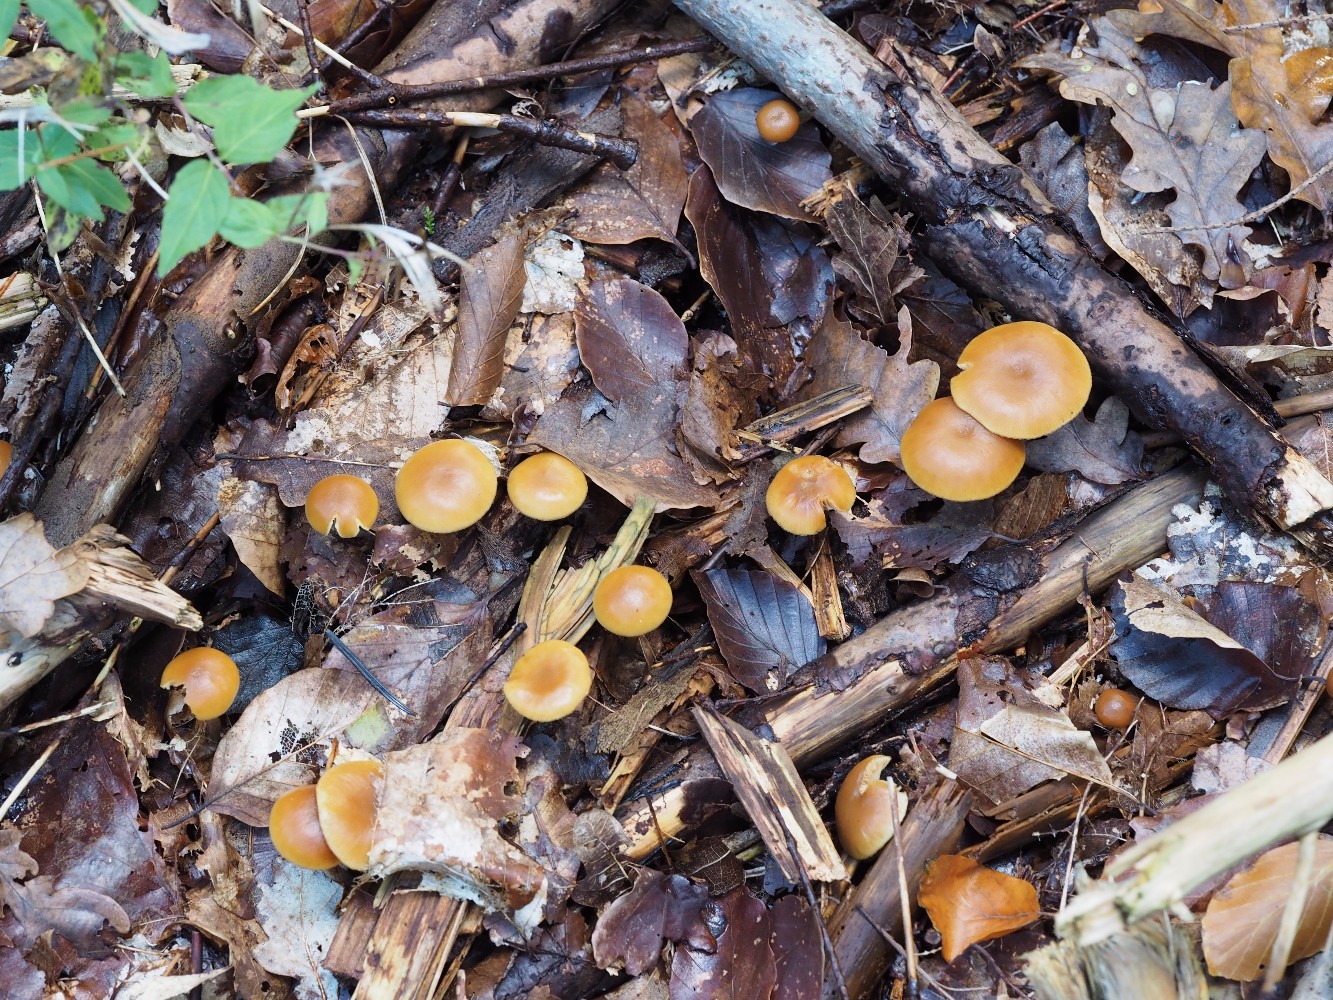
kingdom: Fungi
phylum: Basidiomycota
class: Agaricomycetes
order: Agaricales
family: Hymenogastraceae
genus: Galerina
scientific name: Galerina marginata
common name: randbæltet hjelmhat
